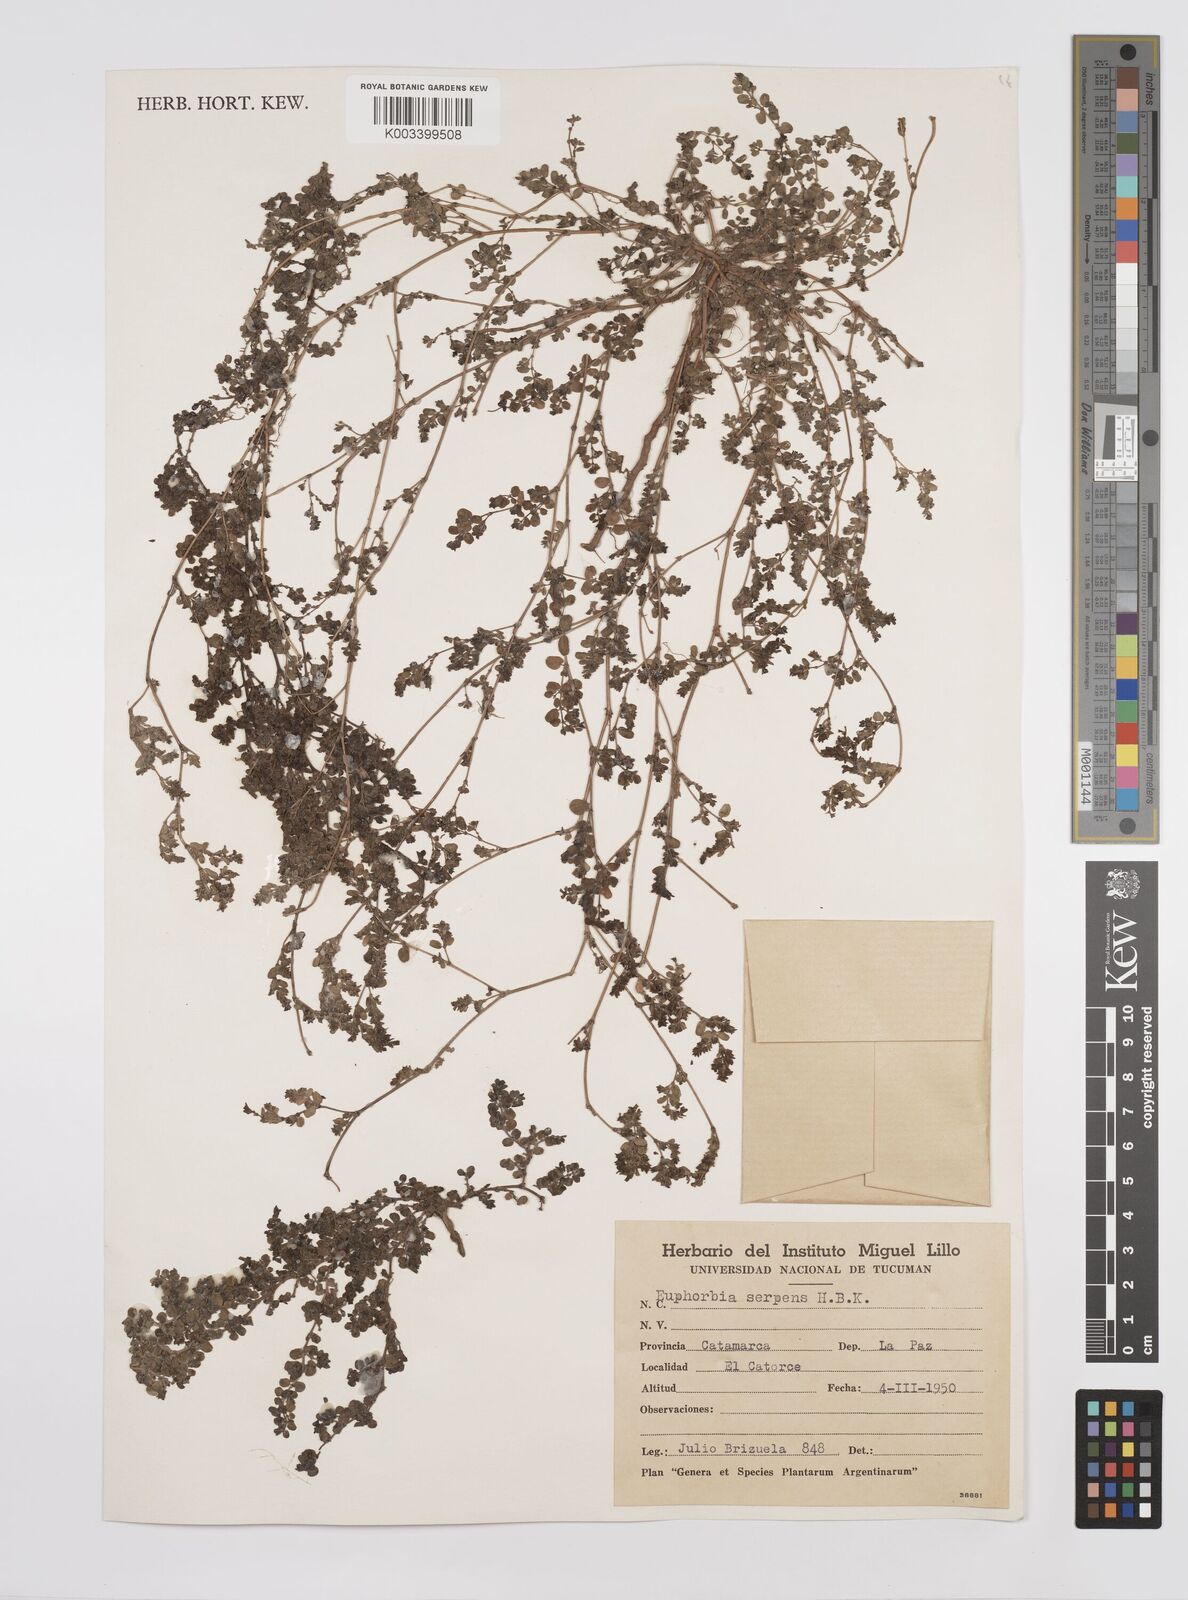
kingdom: Plantae
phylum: Tracheophyta
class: Magnoliopsida
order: Malpighiales
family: Euphorbiaceae
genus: Euphorbia
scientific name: Euphorbia
